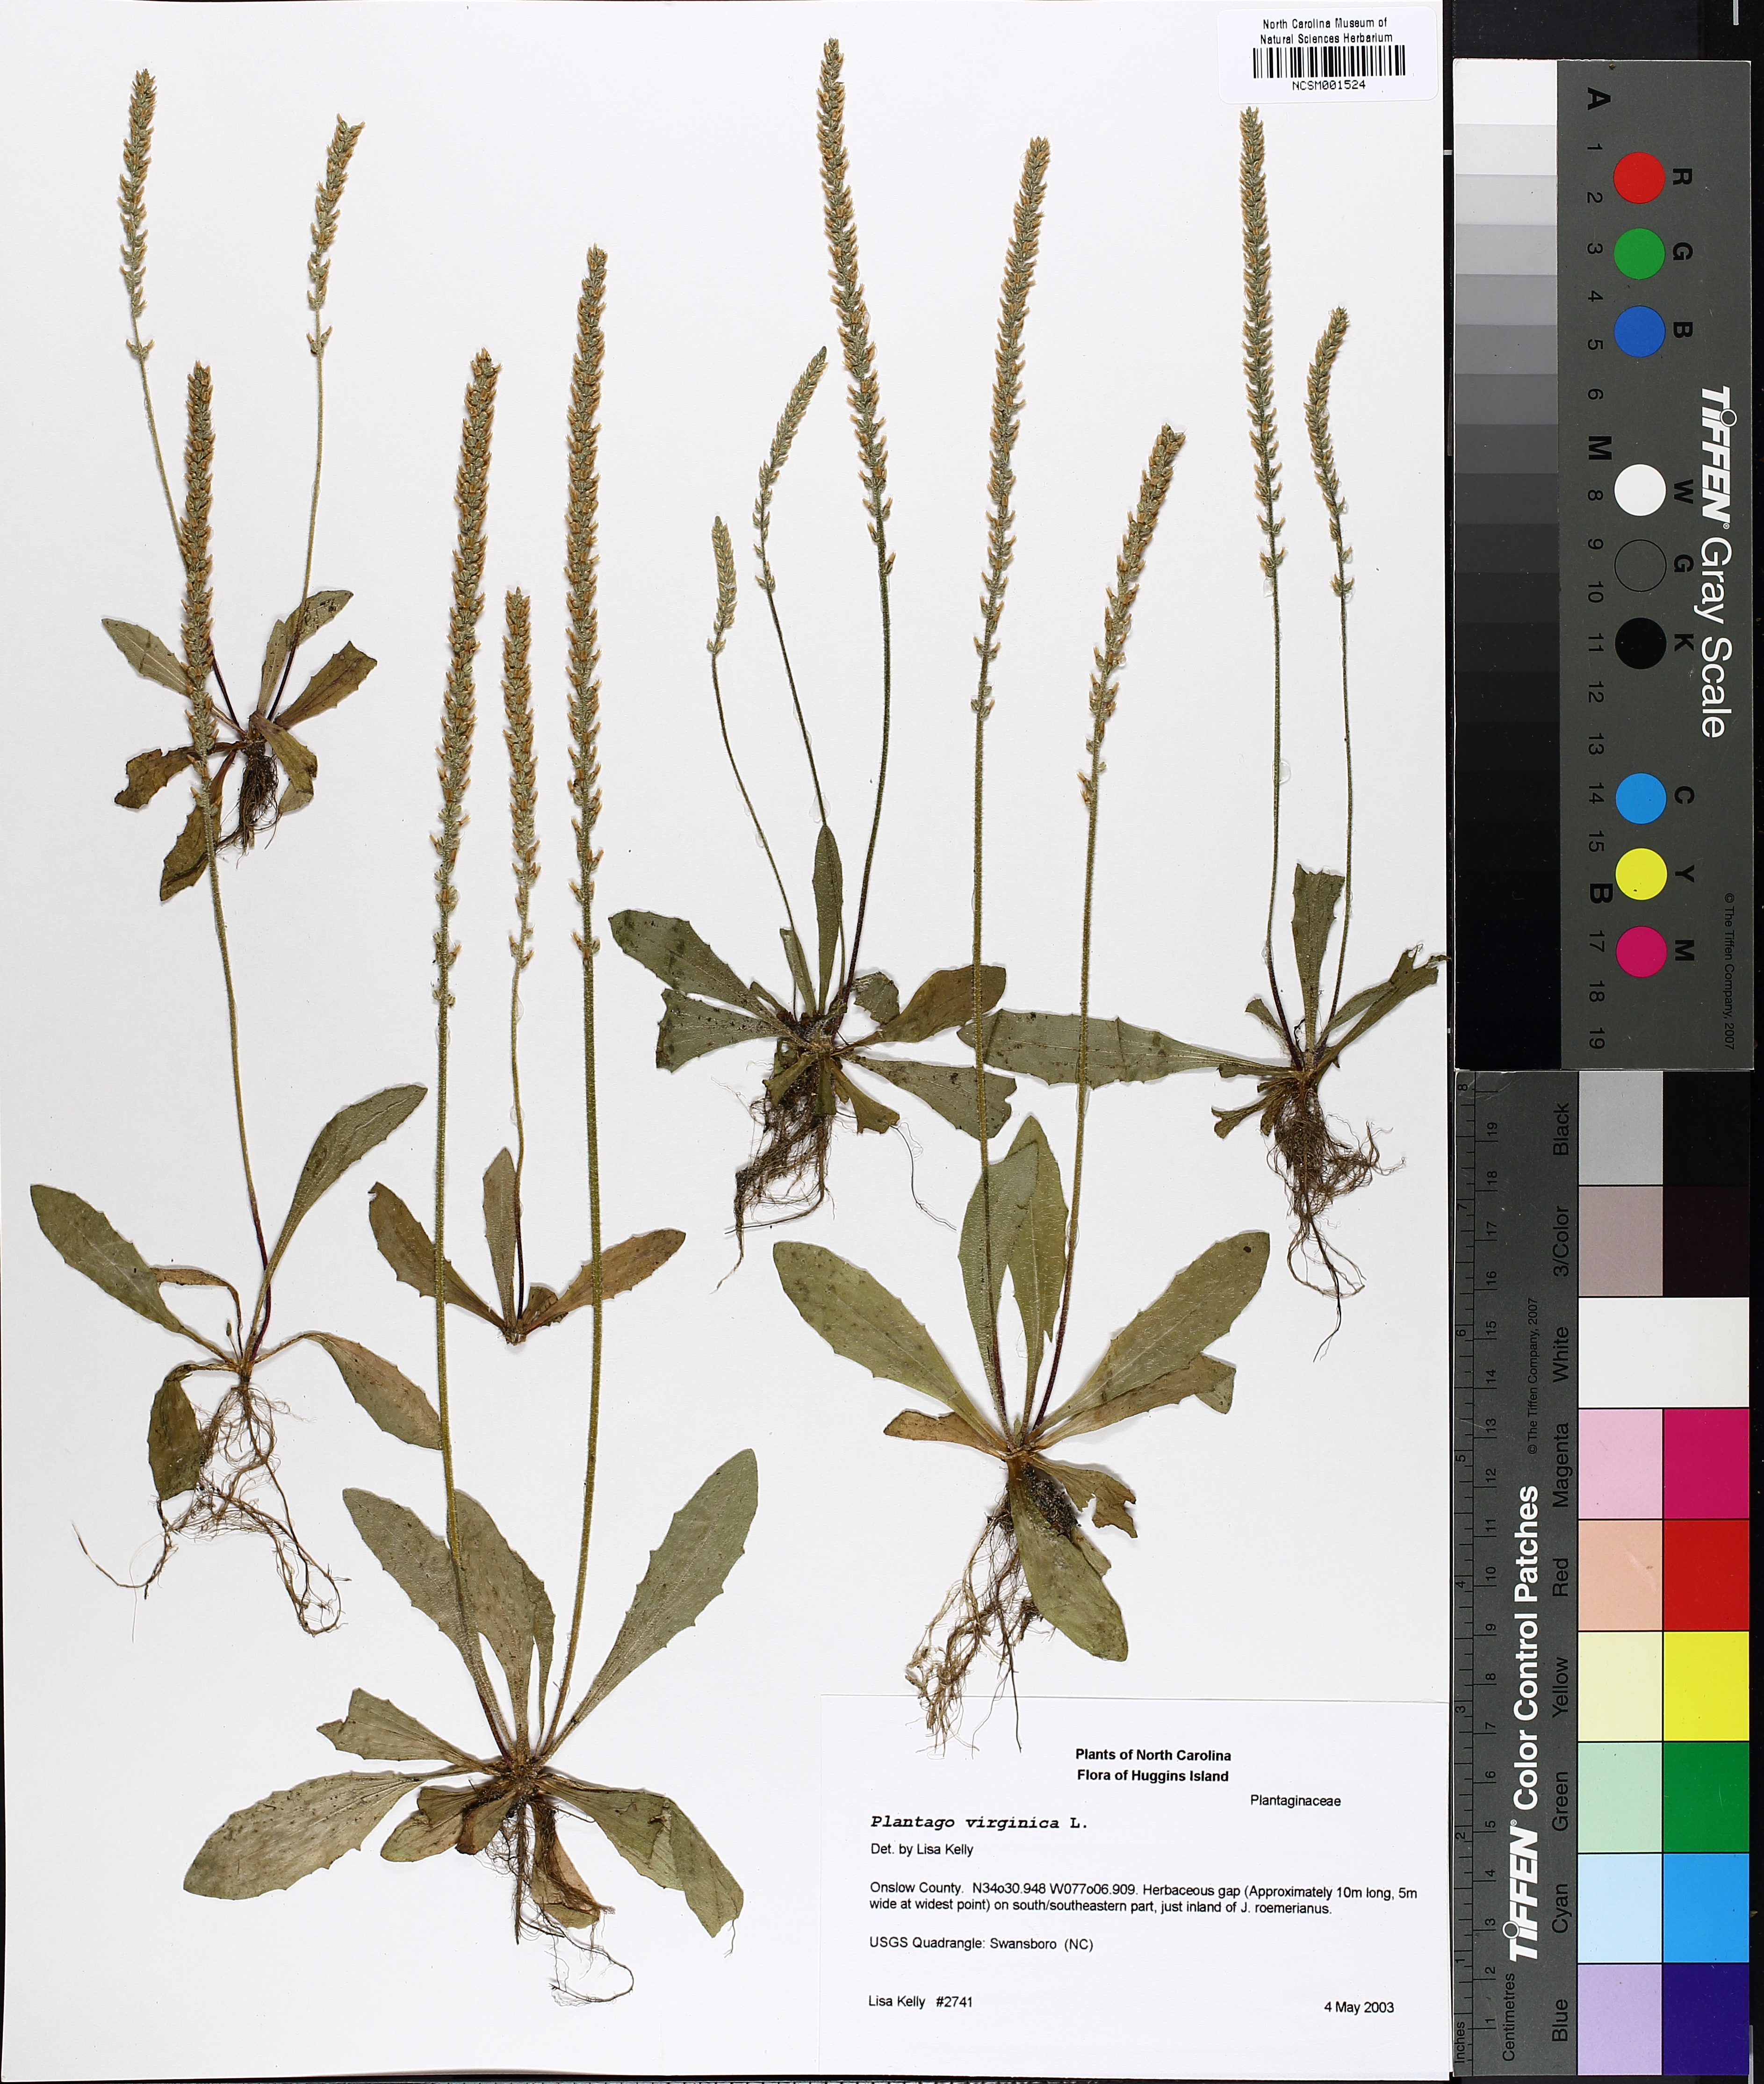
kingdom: Plantae
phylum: Tracheophyta
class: Magnoliopsida
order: Lamiales
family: Plantaginaceae
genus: Plantago
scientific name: Plantago virginica
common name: Hoary plantain
